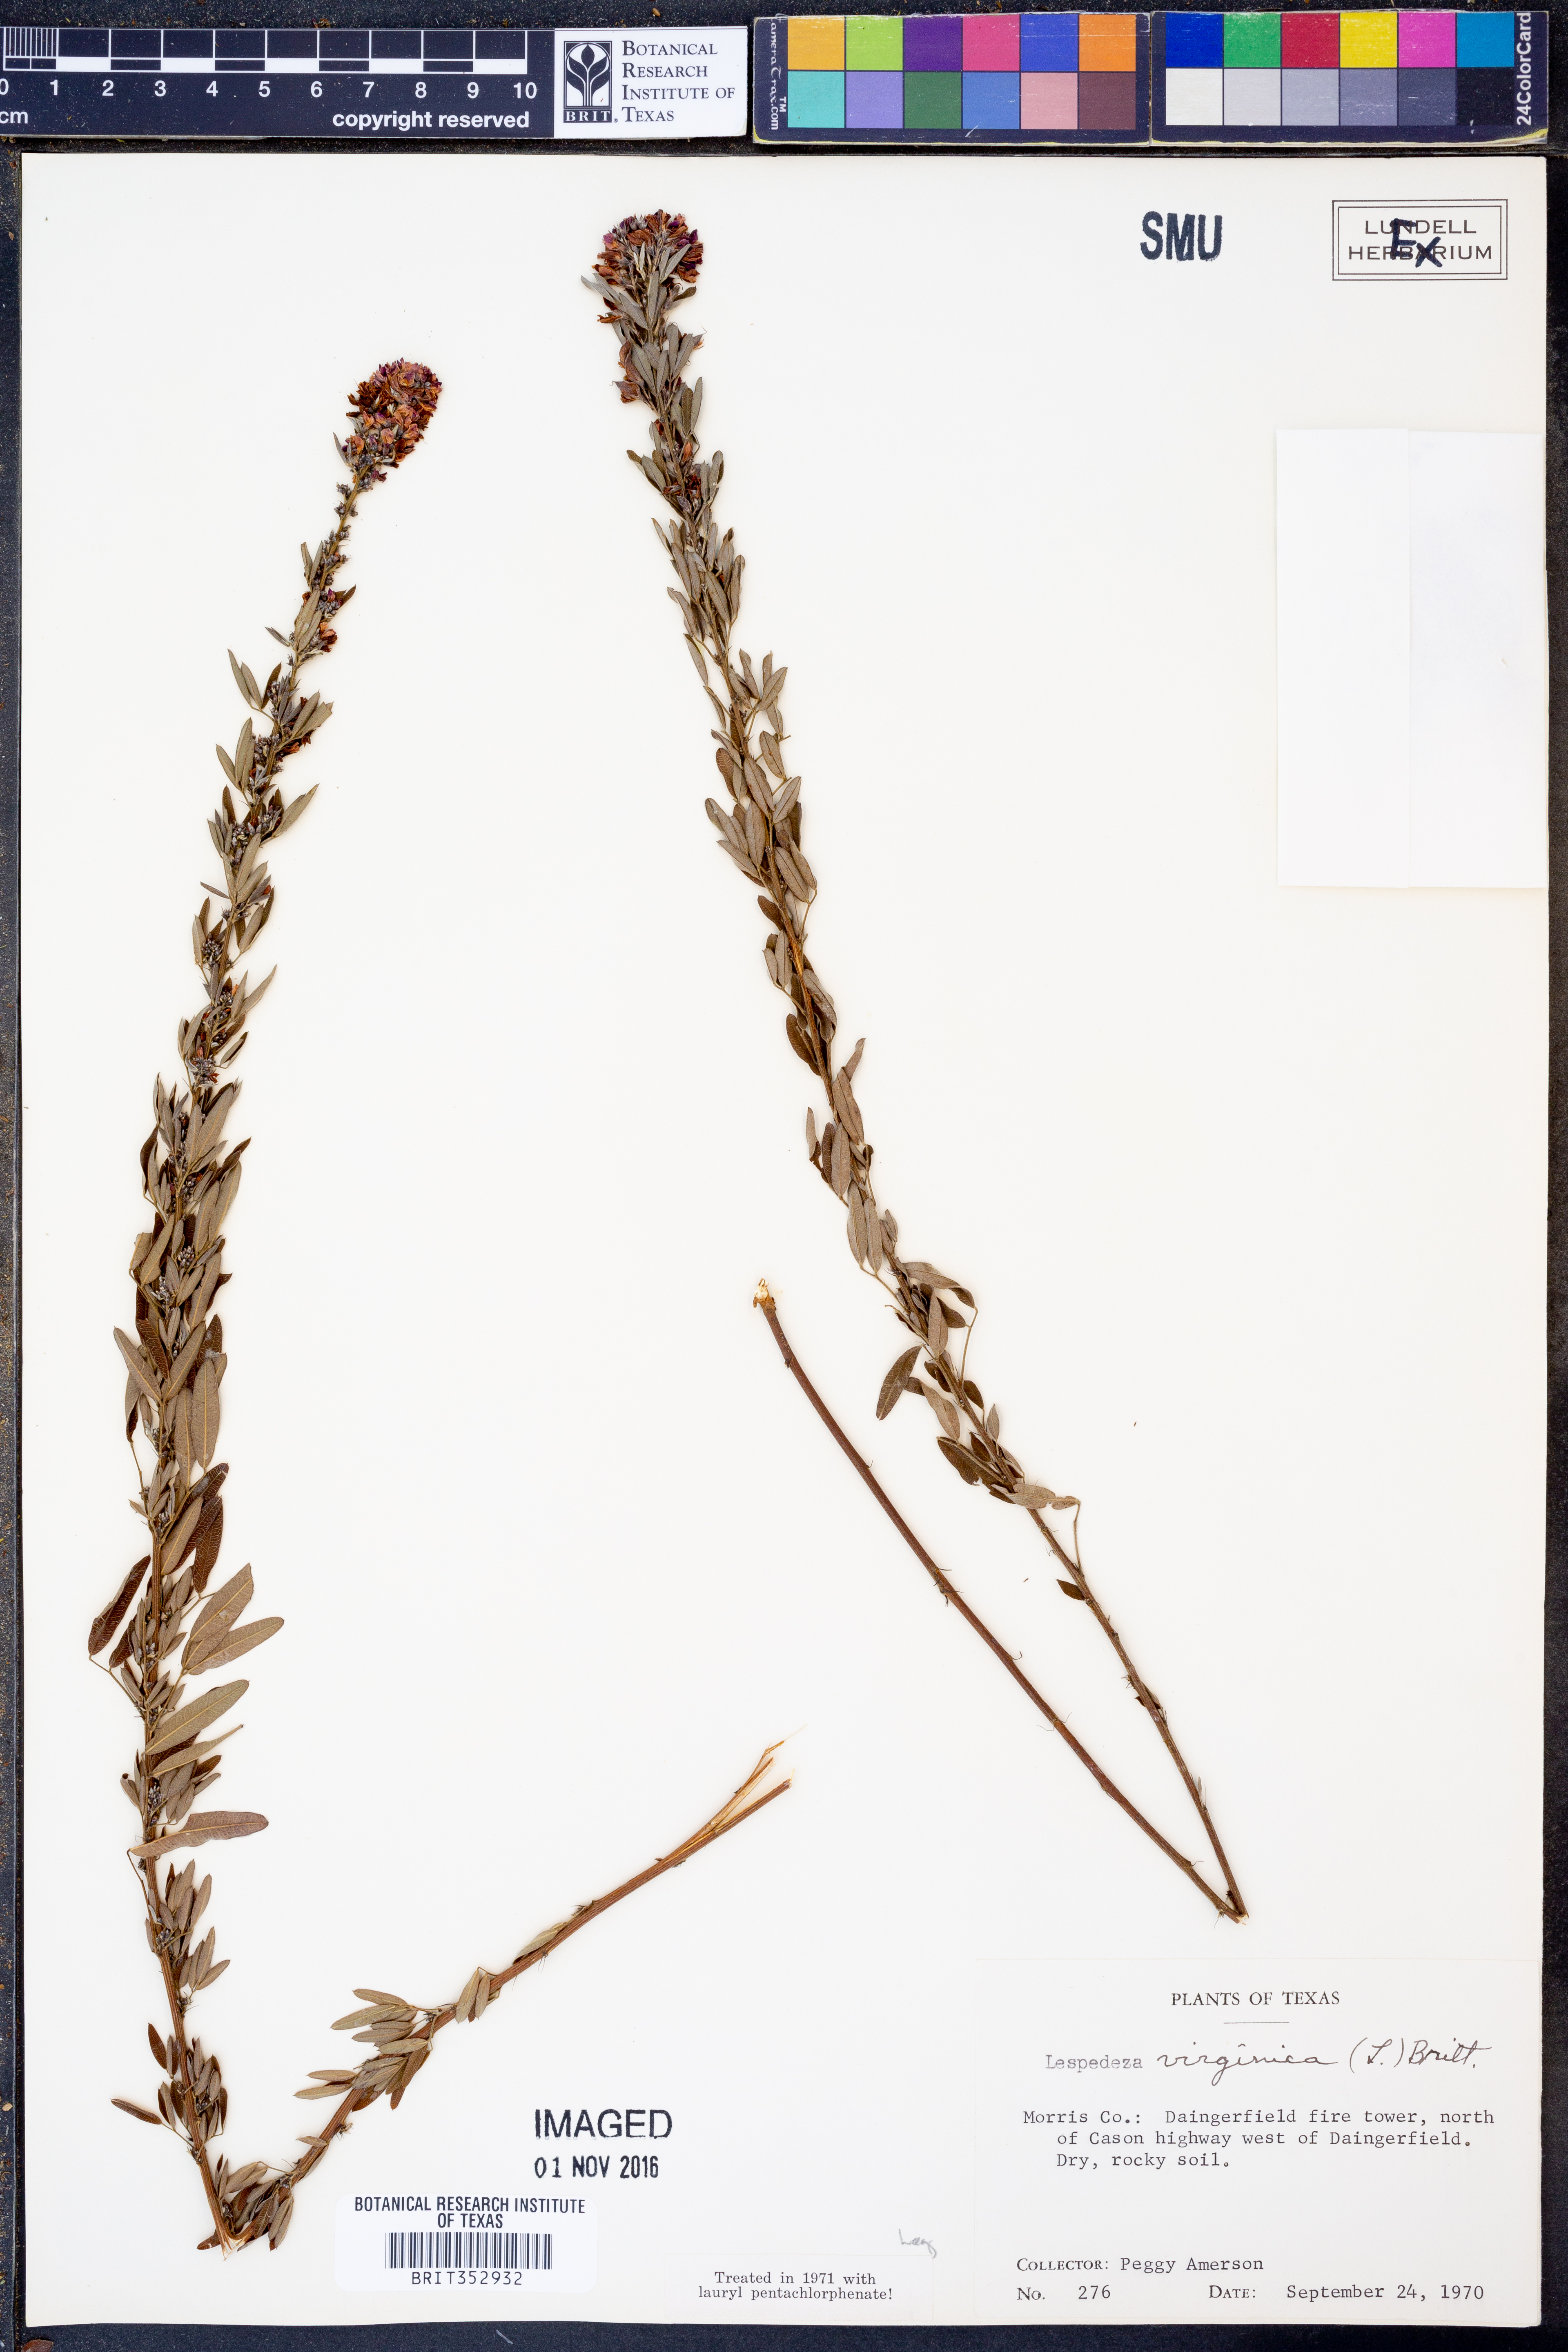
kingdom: Plantae
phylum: Tracheophyta
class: Magnoliopsida
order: Fabales
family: Fabaceae
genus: Lespedeza
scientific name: Lespedeza virginica
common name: Slender bush-clover
